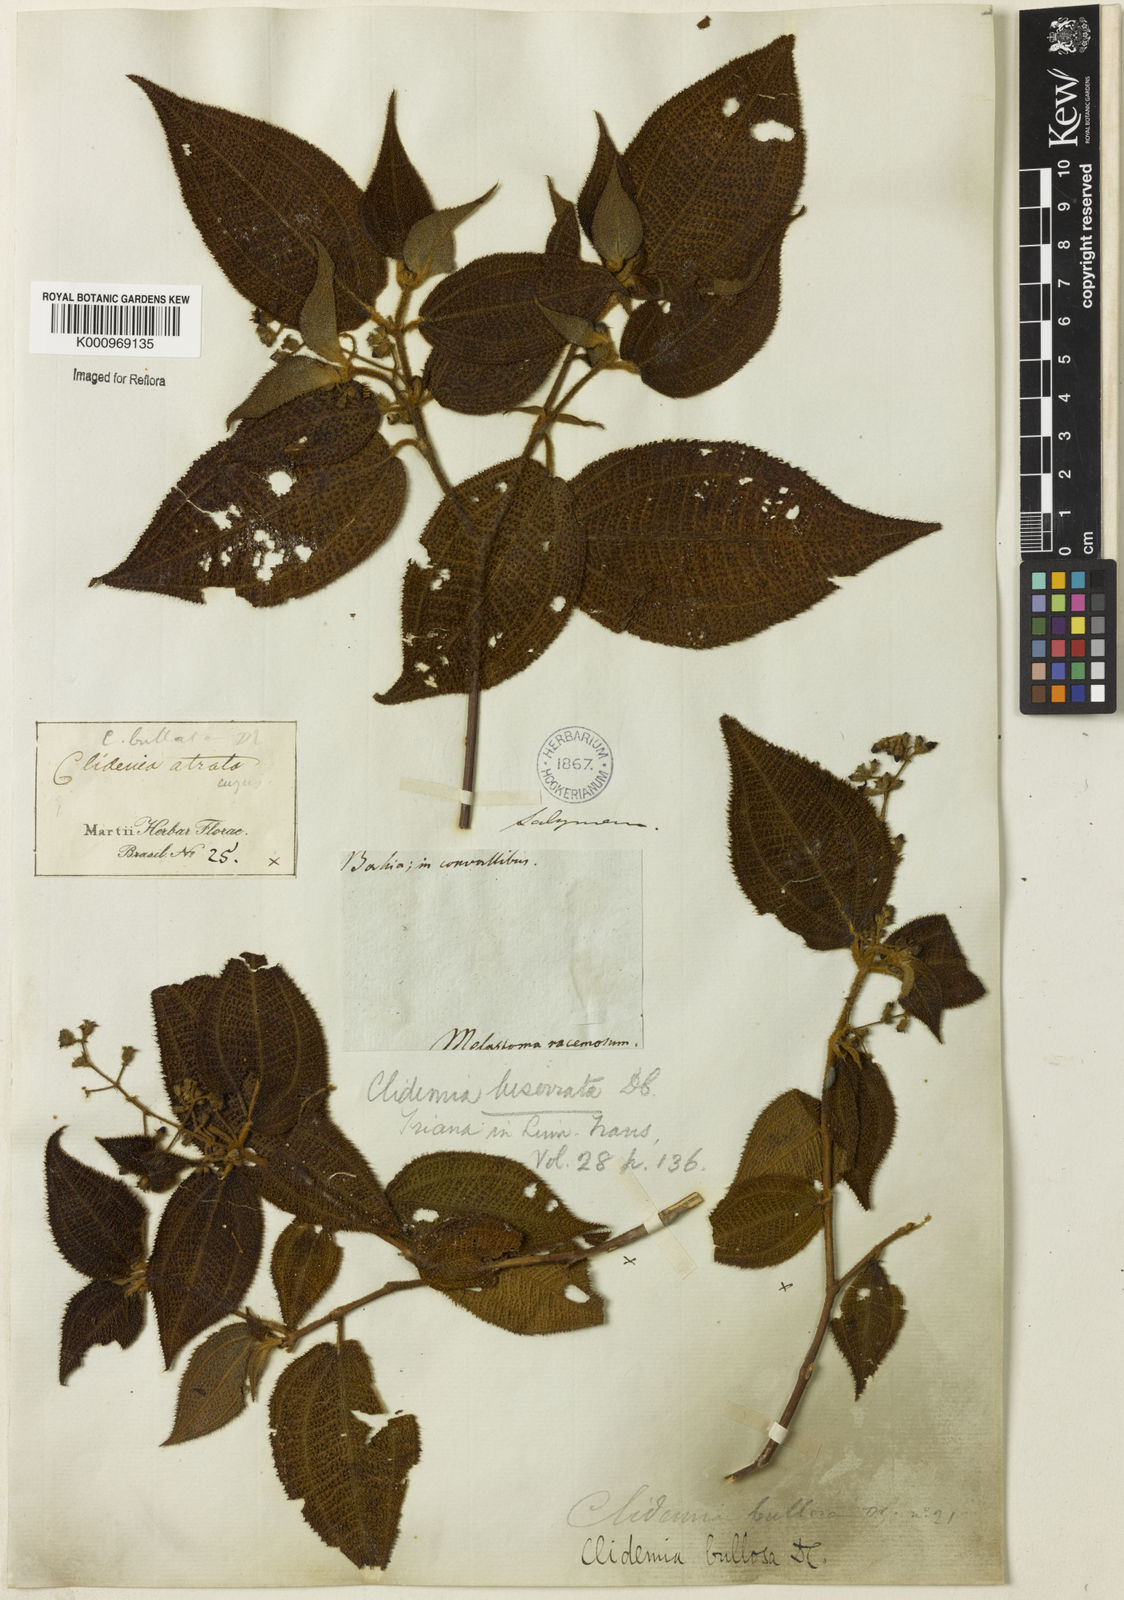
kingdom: Plantae
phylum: Tracheophyta
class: Magnoliopsida
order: Myrtales
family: Melastomataceae
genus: Miconia
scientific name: Miconia biserrata
